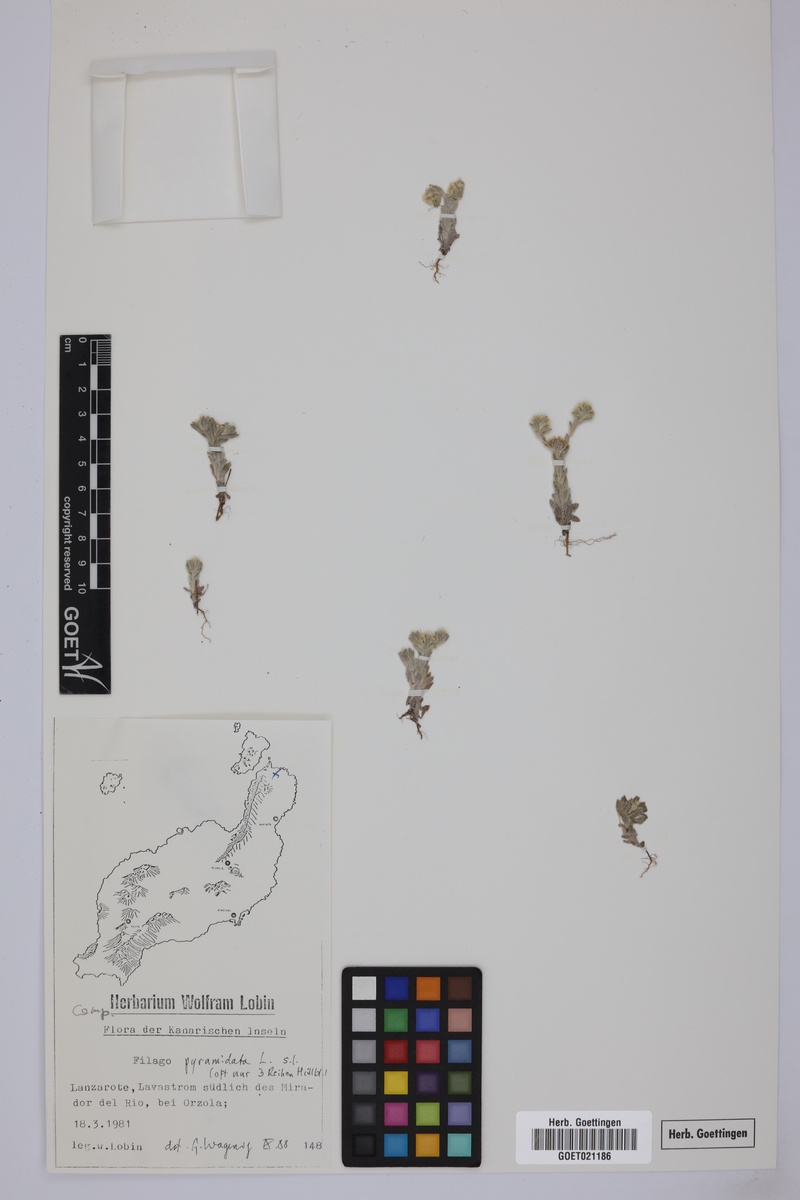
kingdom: Plantae
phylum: Tracheophyta
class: Magnoliopsida
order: Asterales
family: Asteraceae
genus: Filago
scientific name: Filago pyramidata
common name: Broad-leaved cudweed
